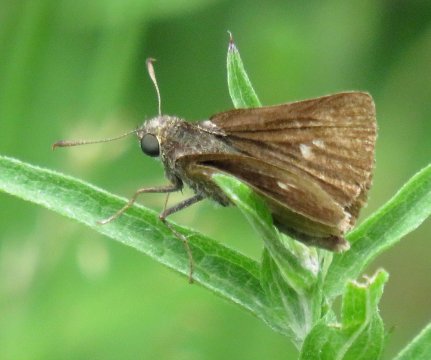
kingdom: Animalia
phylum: Arthropoda
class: Insecta
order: Lepidoptera
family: Hesperiidae
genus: Euphyes
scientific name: Euphyes vestris
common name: Dun Skipper
